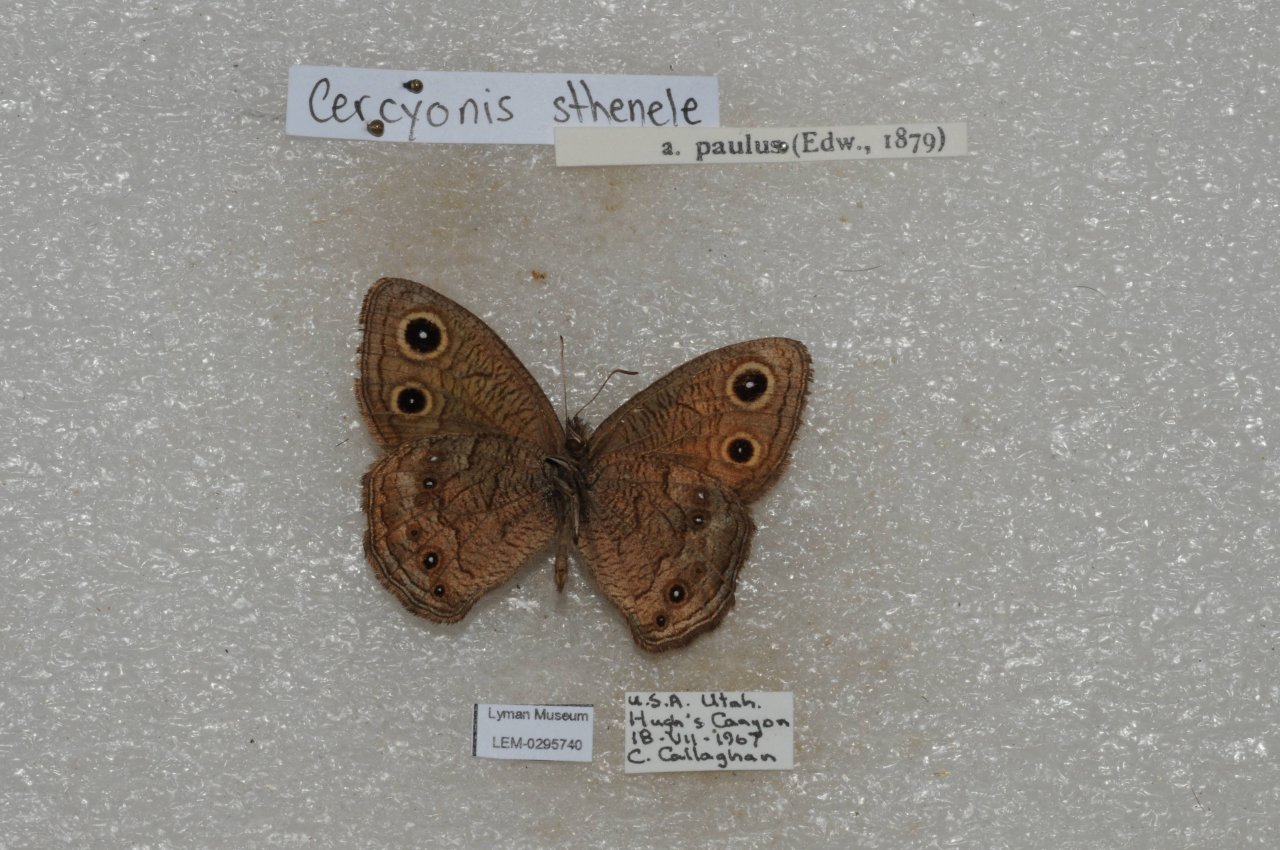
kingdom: Animalia
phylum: Arthropoda
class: Insecta
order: Lepidoptera
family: Nymphalidae
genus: Cercyonis
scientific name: Cercyonis sthenele
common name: Great Basin Wood-Nymph
